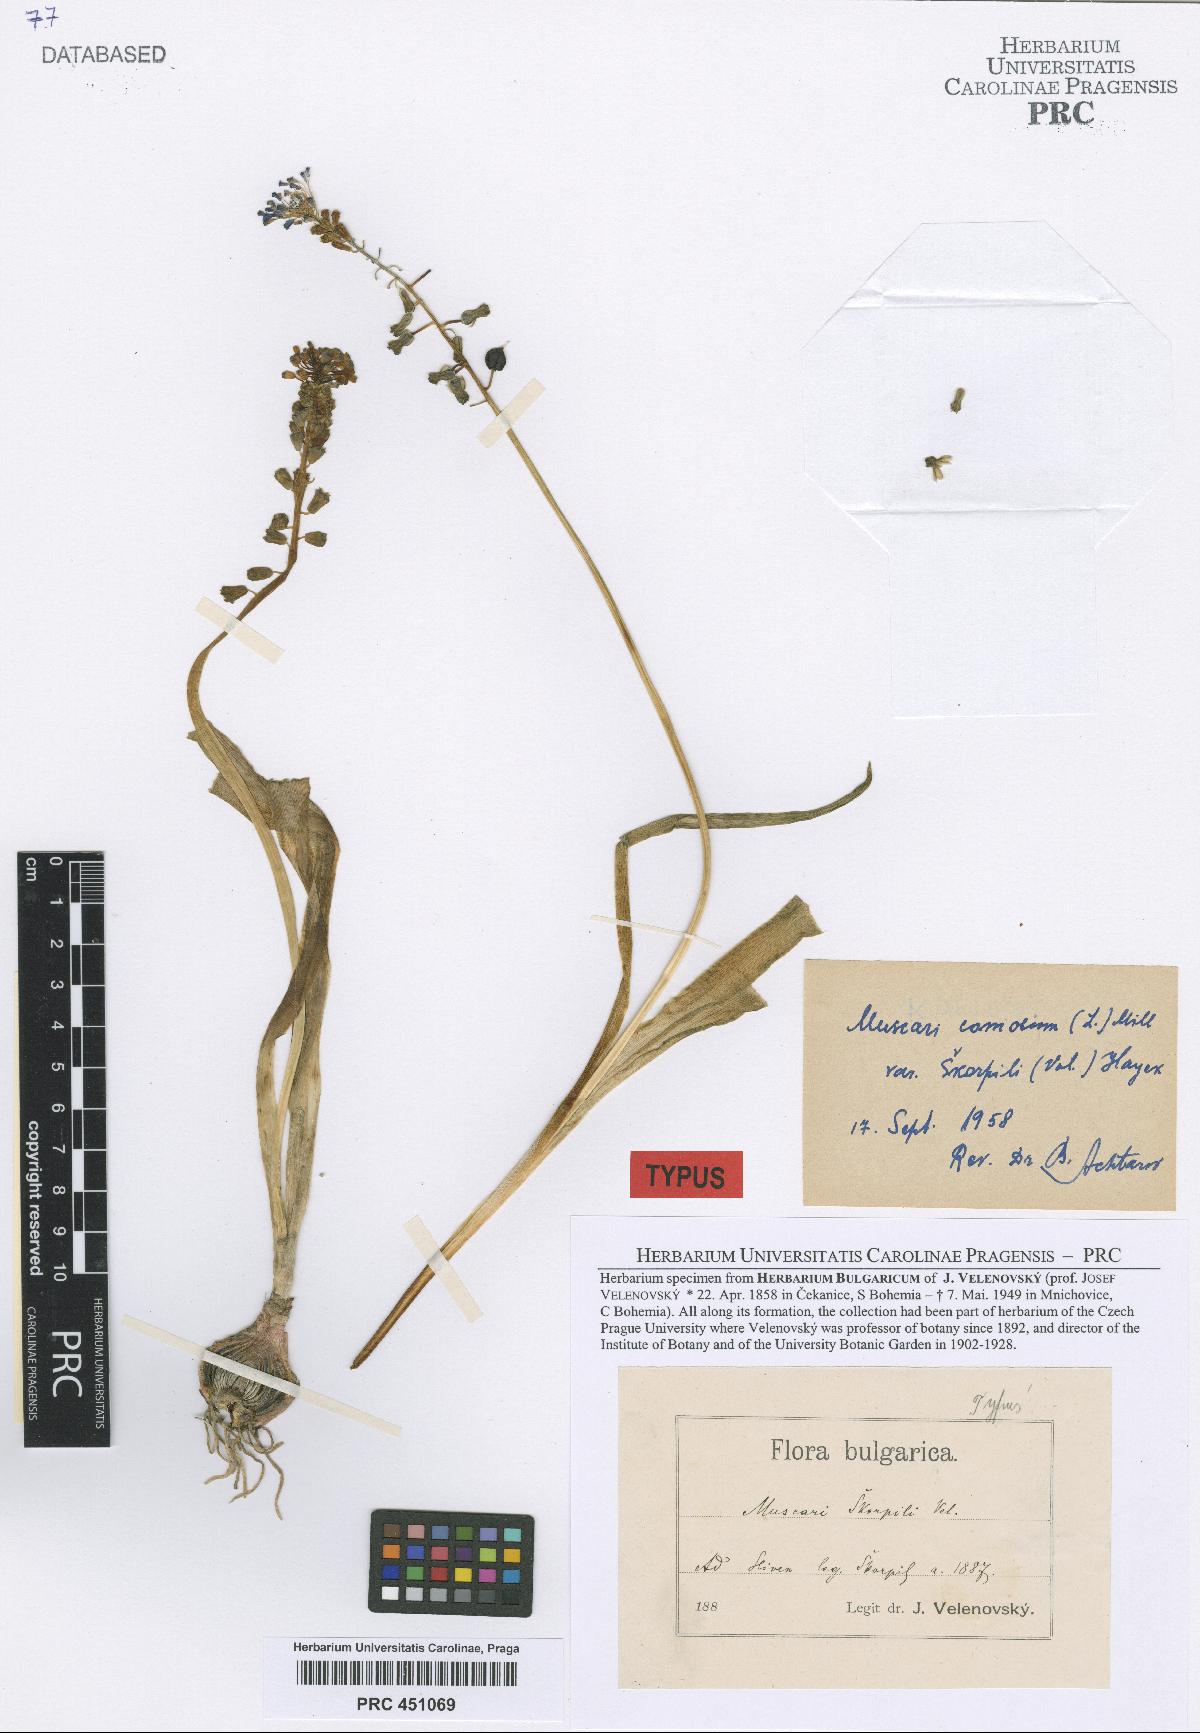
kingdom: Plantae
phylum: Tracheophyta
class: Liliopsida
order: Asparagales
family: Asparagaceae
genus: Muscari
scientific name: Muscari neglectum
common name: Grape-hyacinth
